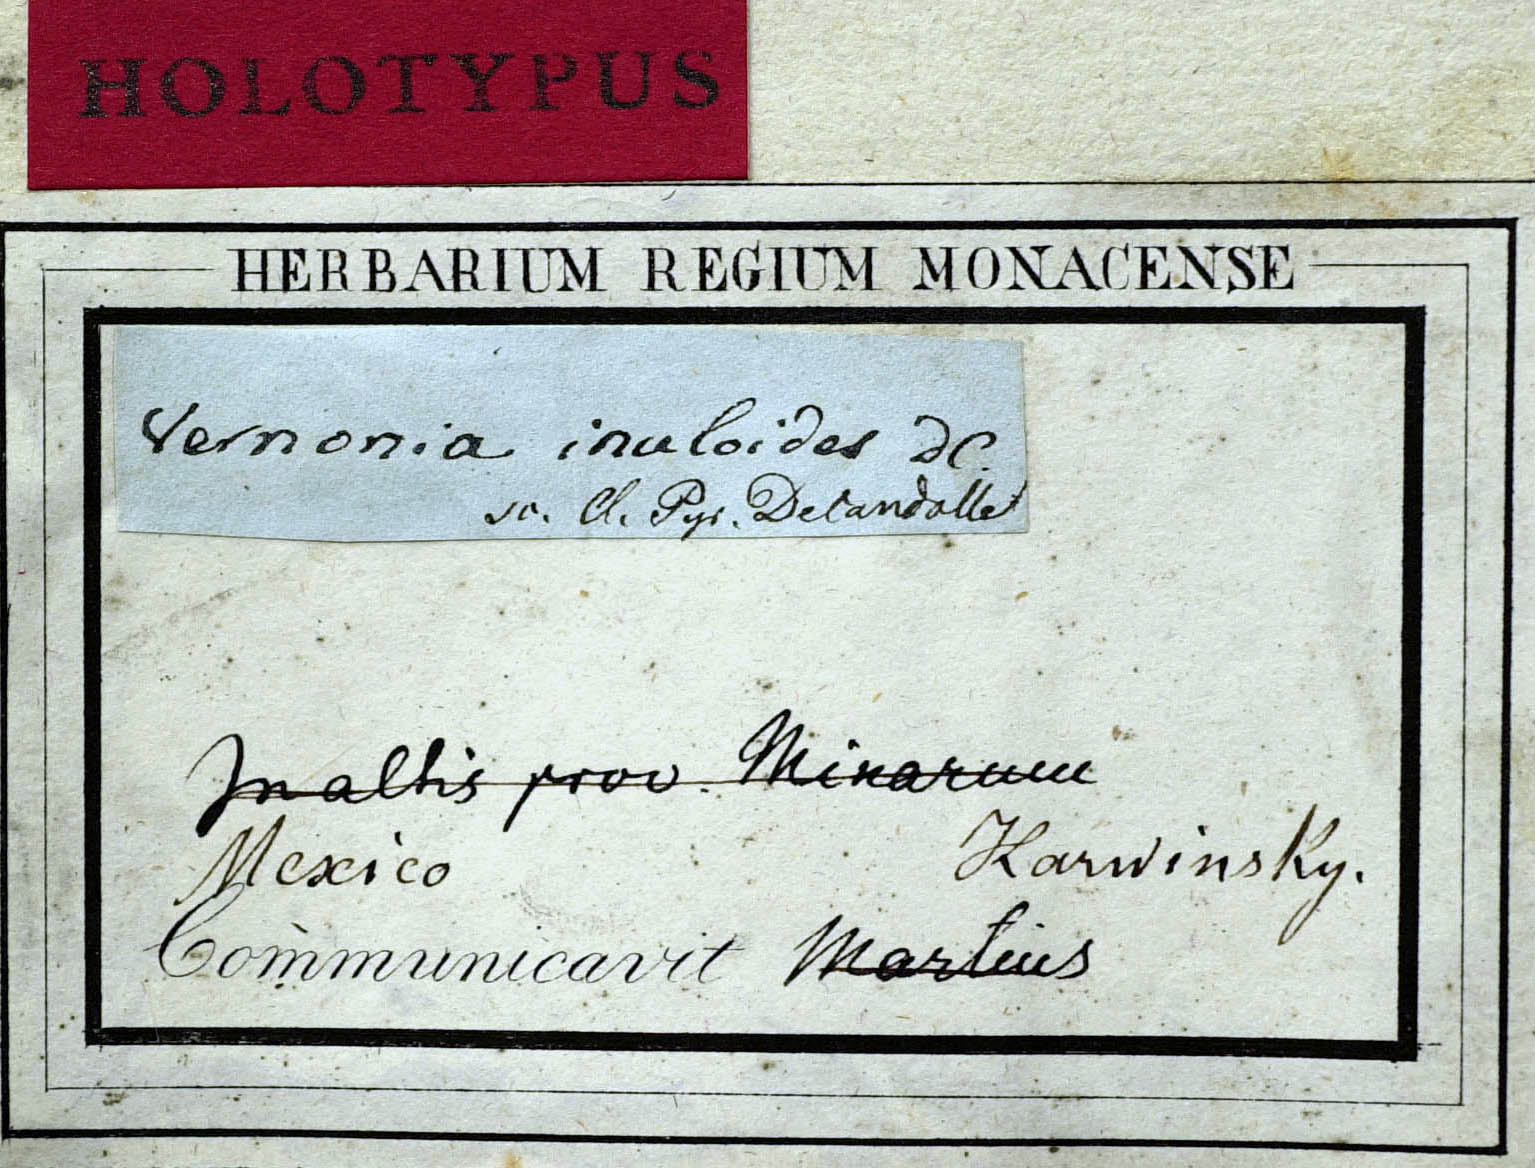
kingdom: Plantae
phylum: Tracheophyta
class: Magnoliopsida
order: Asterales
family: Asteraceae
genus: Vernonia
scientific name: Vernonia karvinskiana
